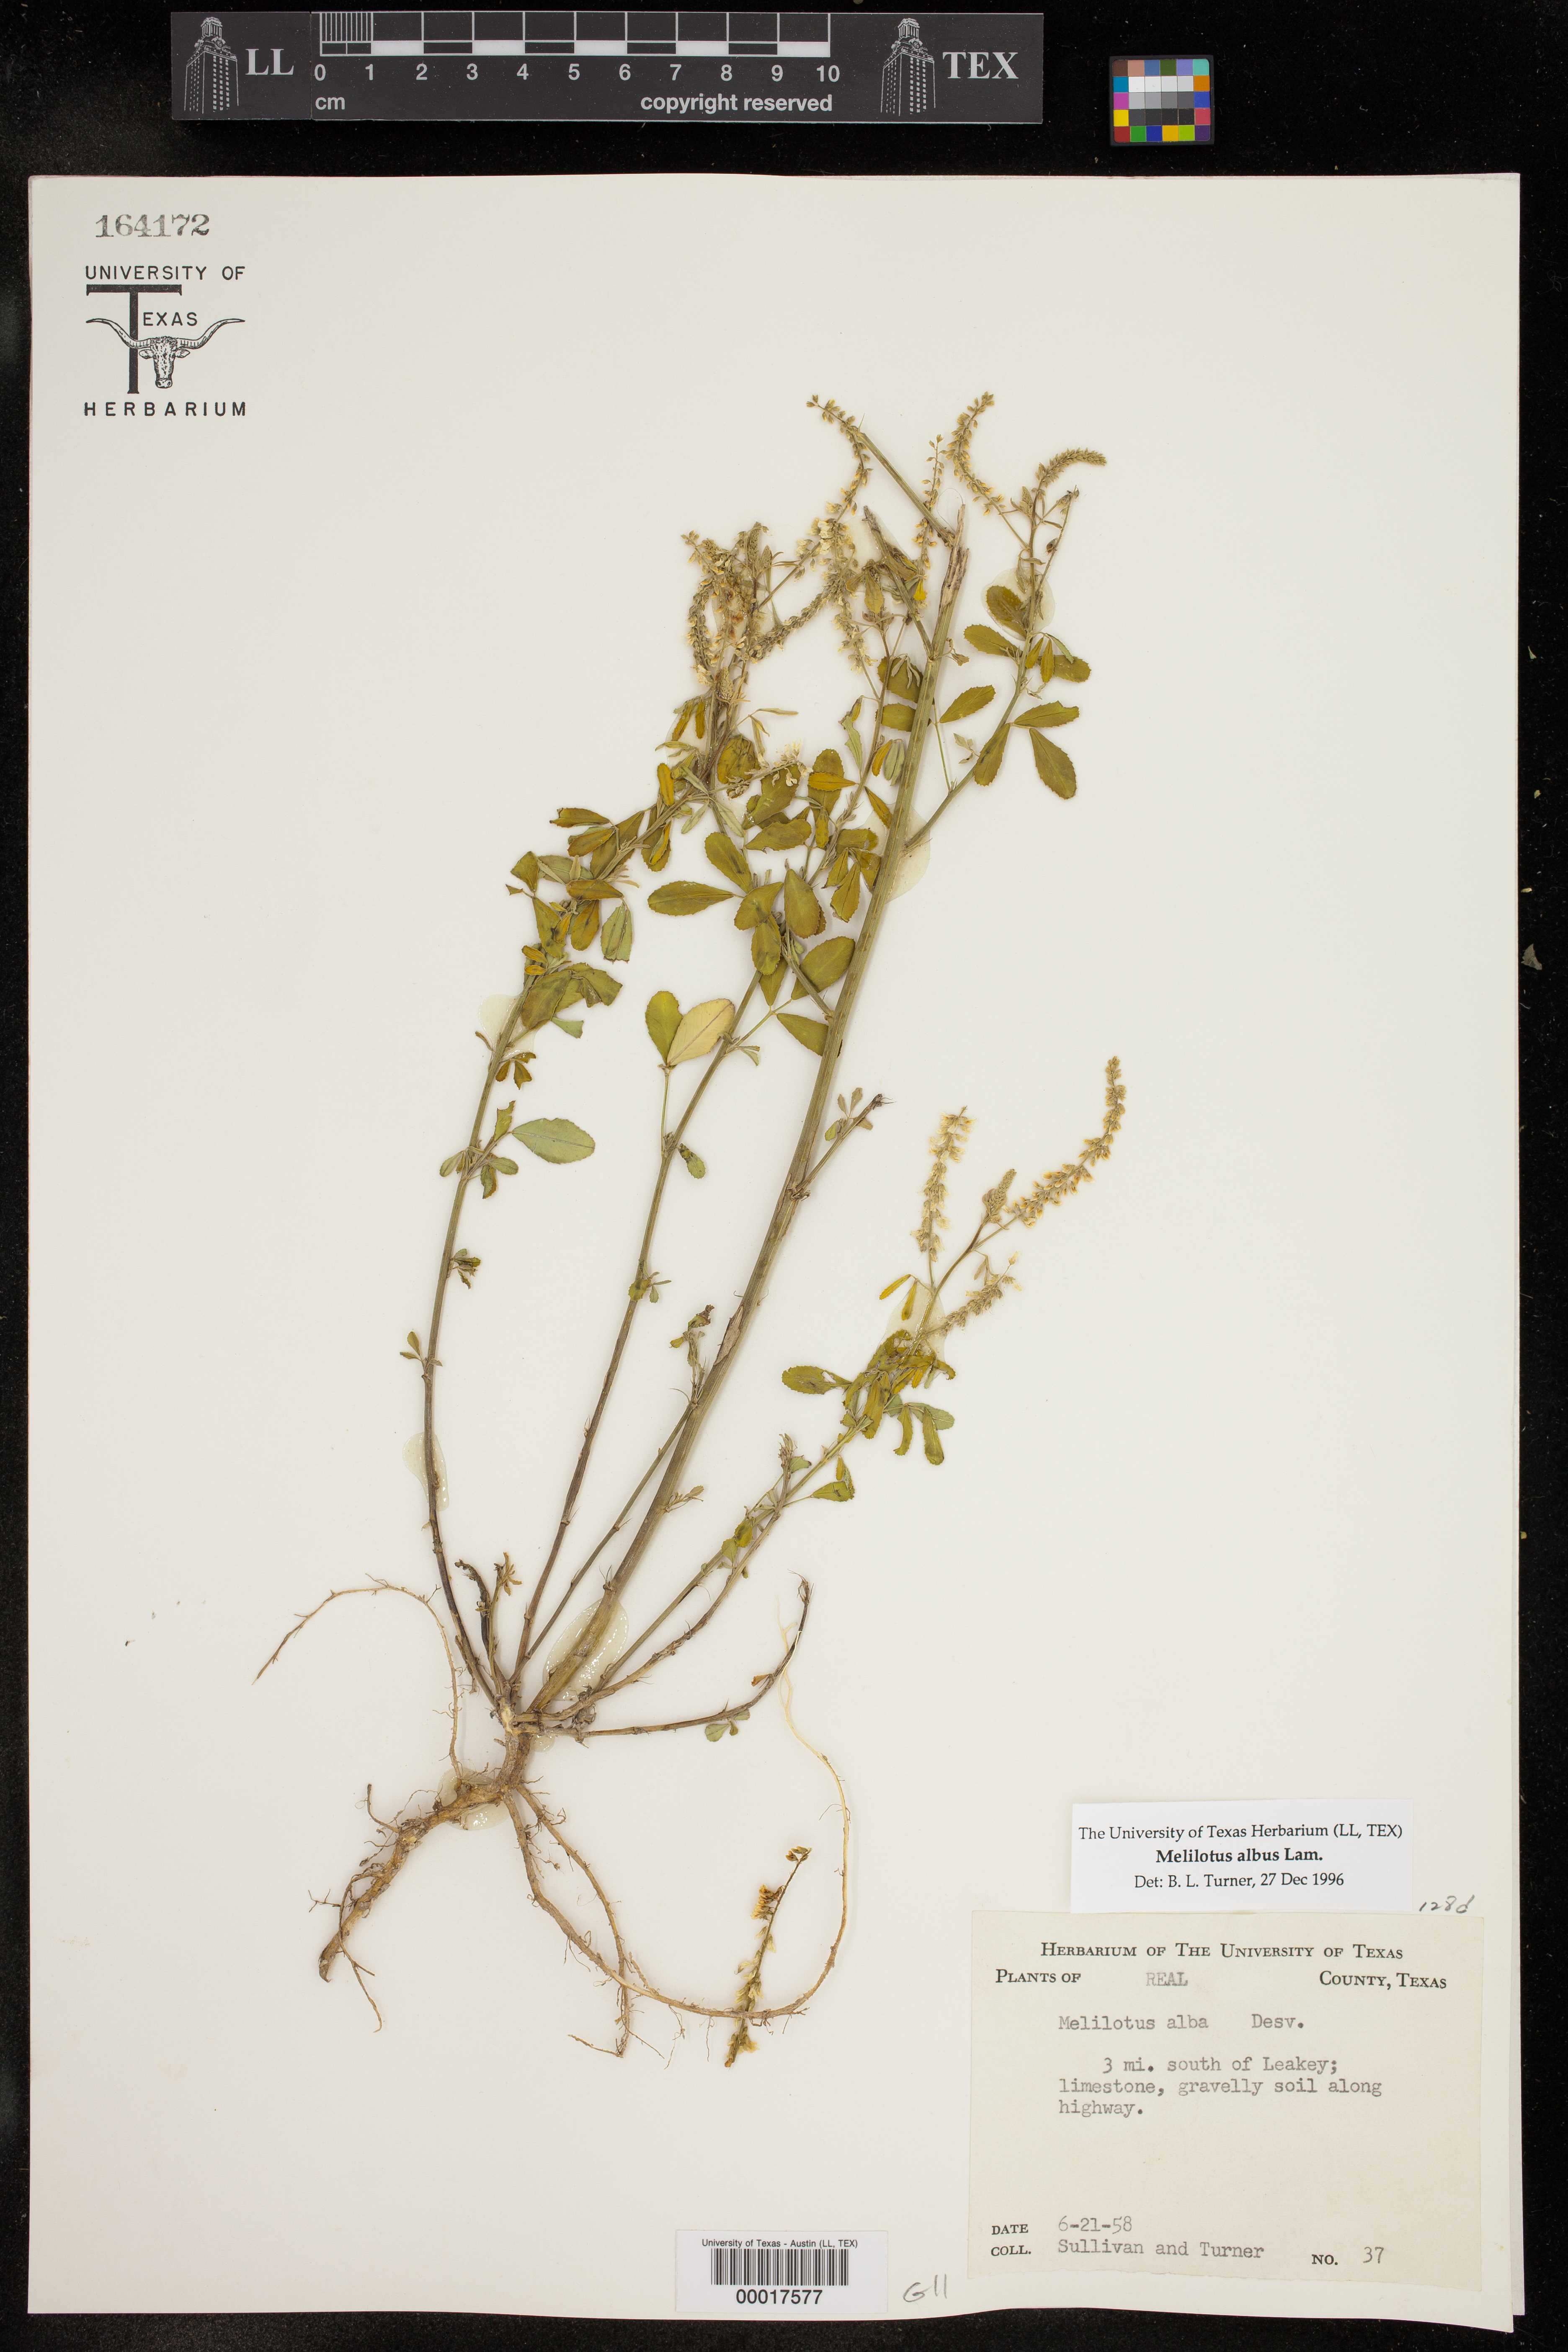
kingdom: Plantae
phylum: Tracheophyta
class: Magnoliopsida
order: Fabales
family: Fabaceae
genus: Melilotus
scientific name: Melilotus albus
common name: White melilot
